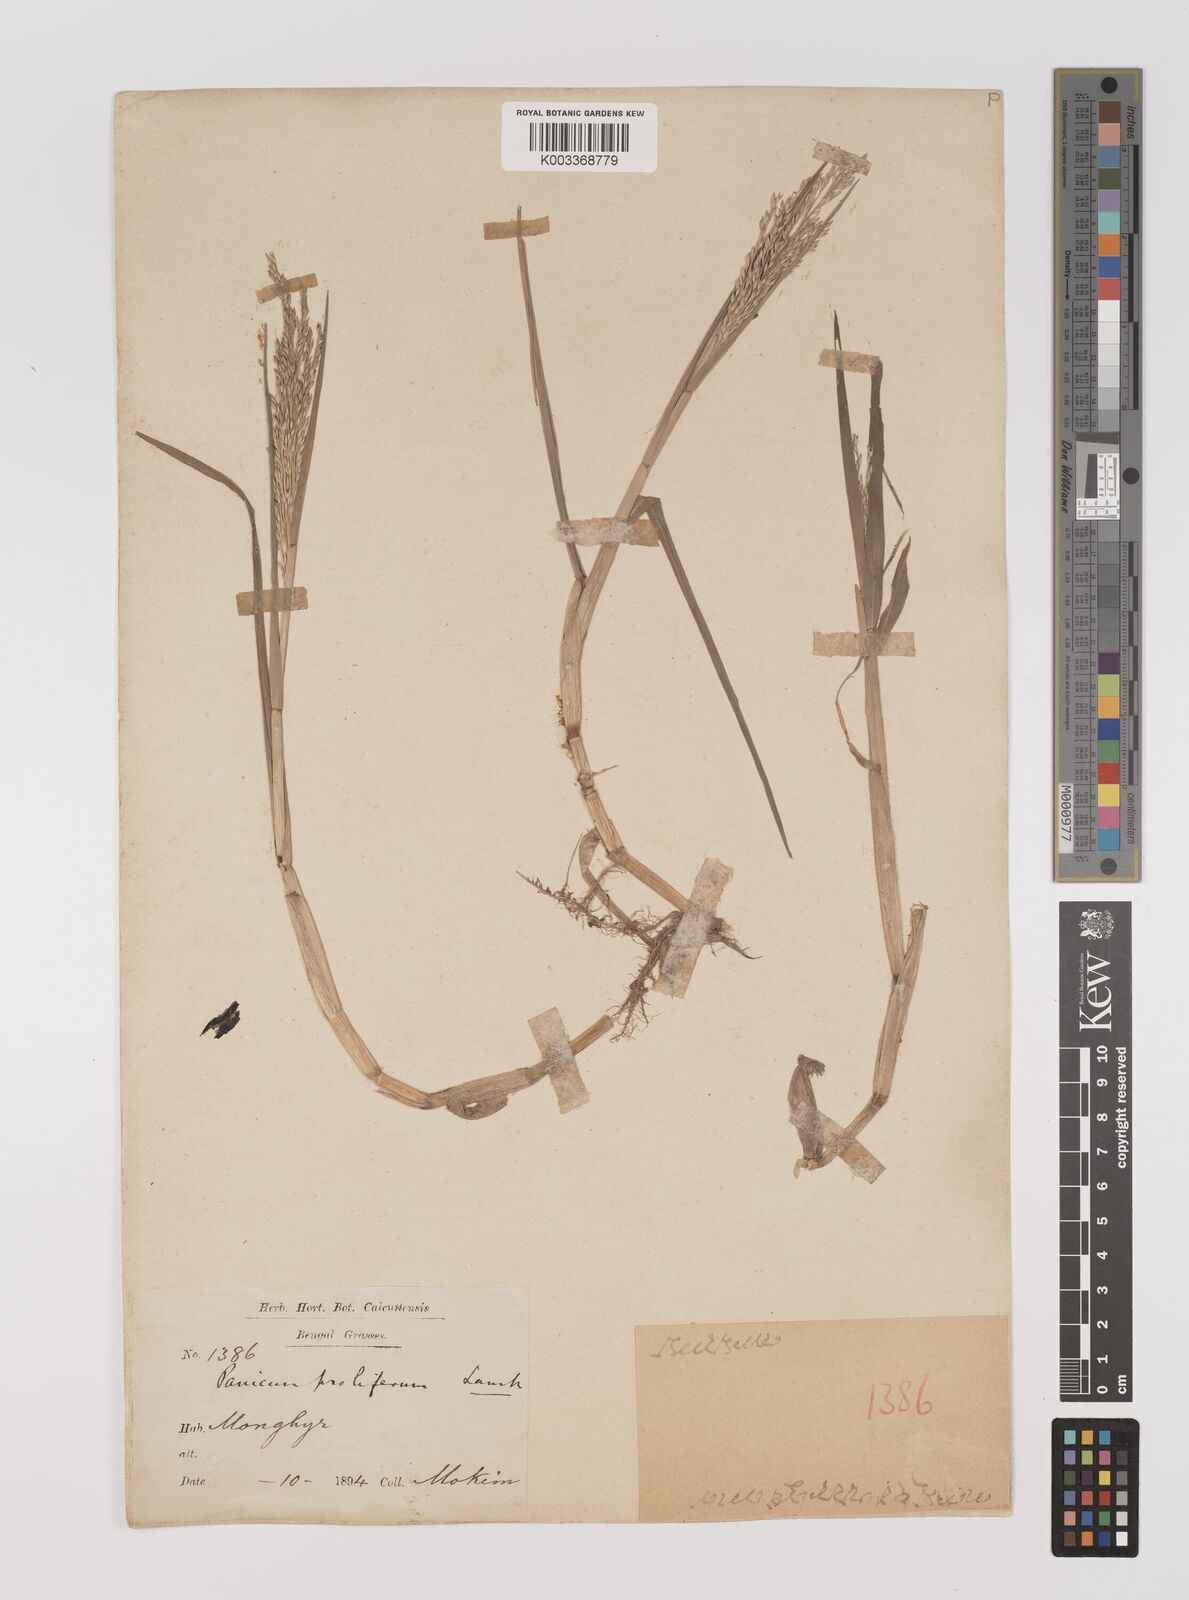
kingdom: Plantae
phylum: Tracheophyta
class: Liliopsida
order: Poales
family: Poaceae
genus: Louisiella
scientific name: Louisiella paludosa
